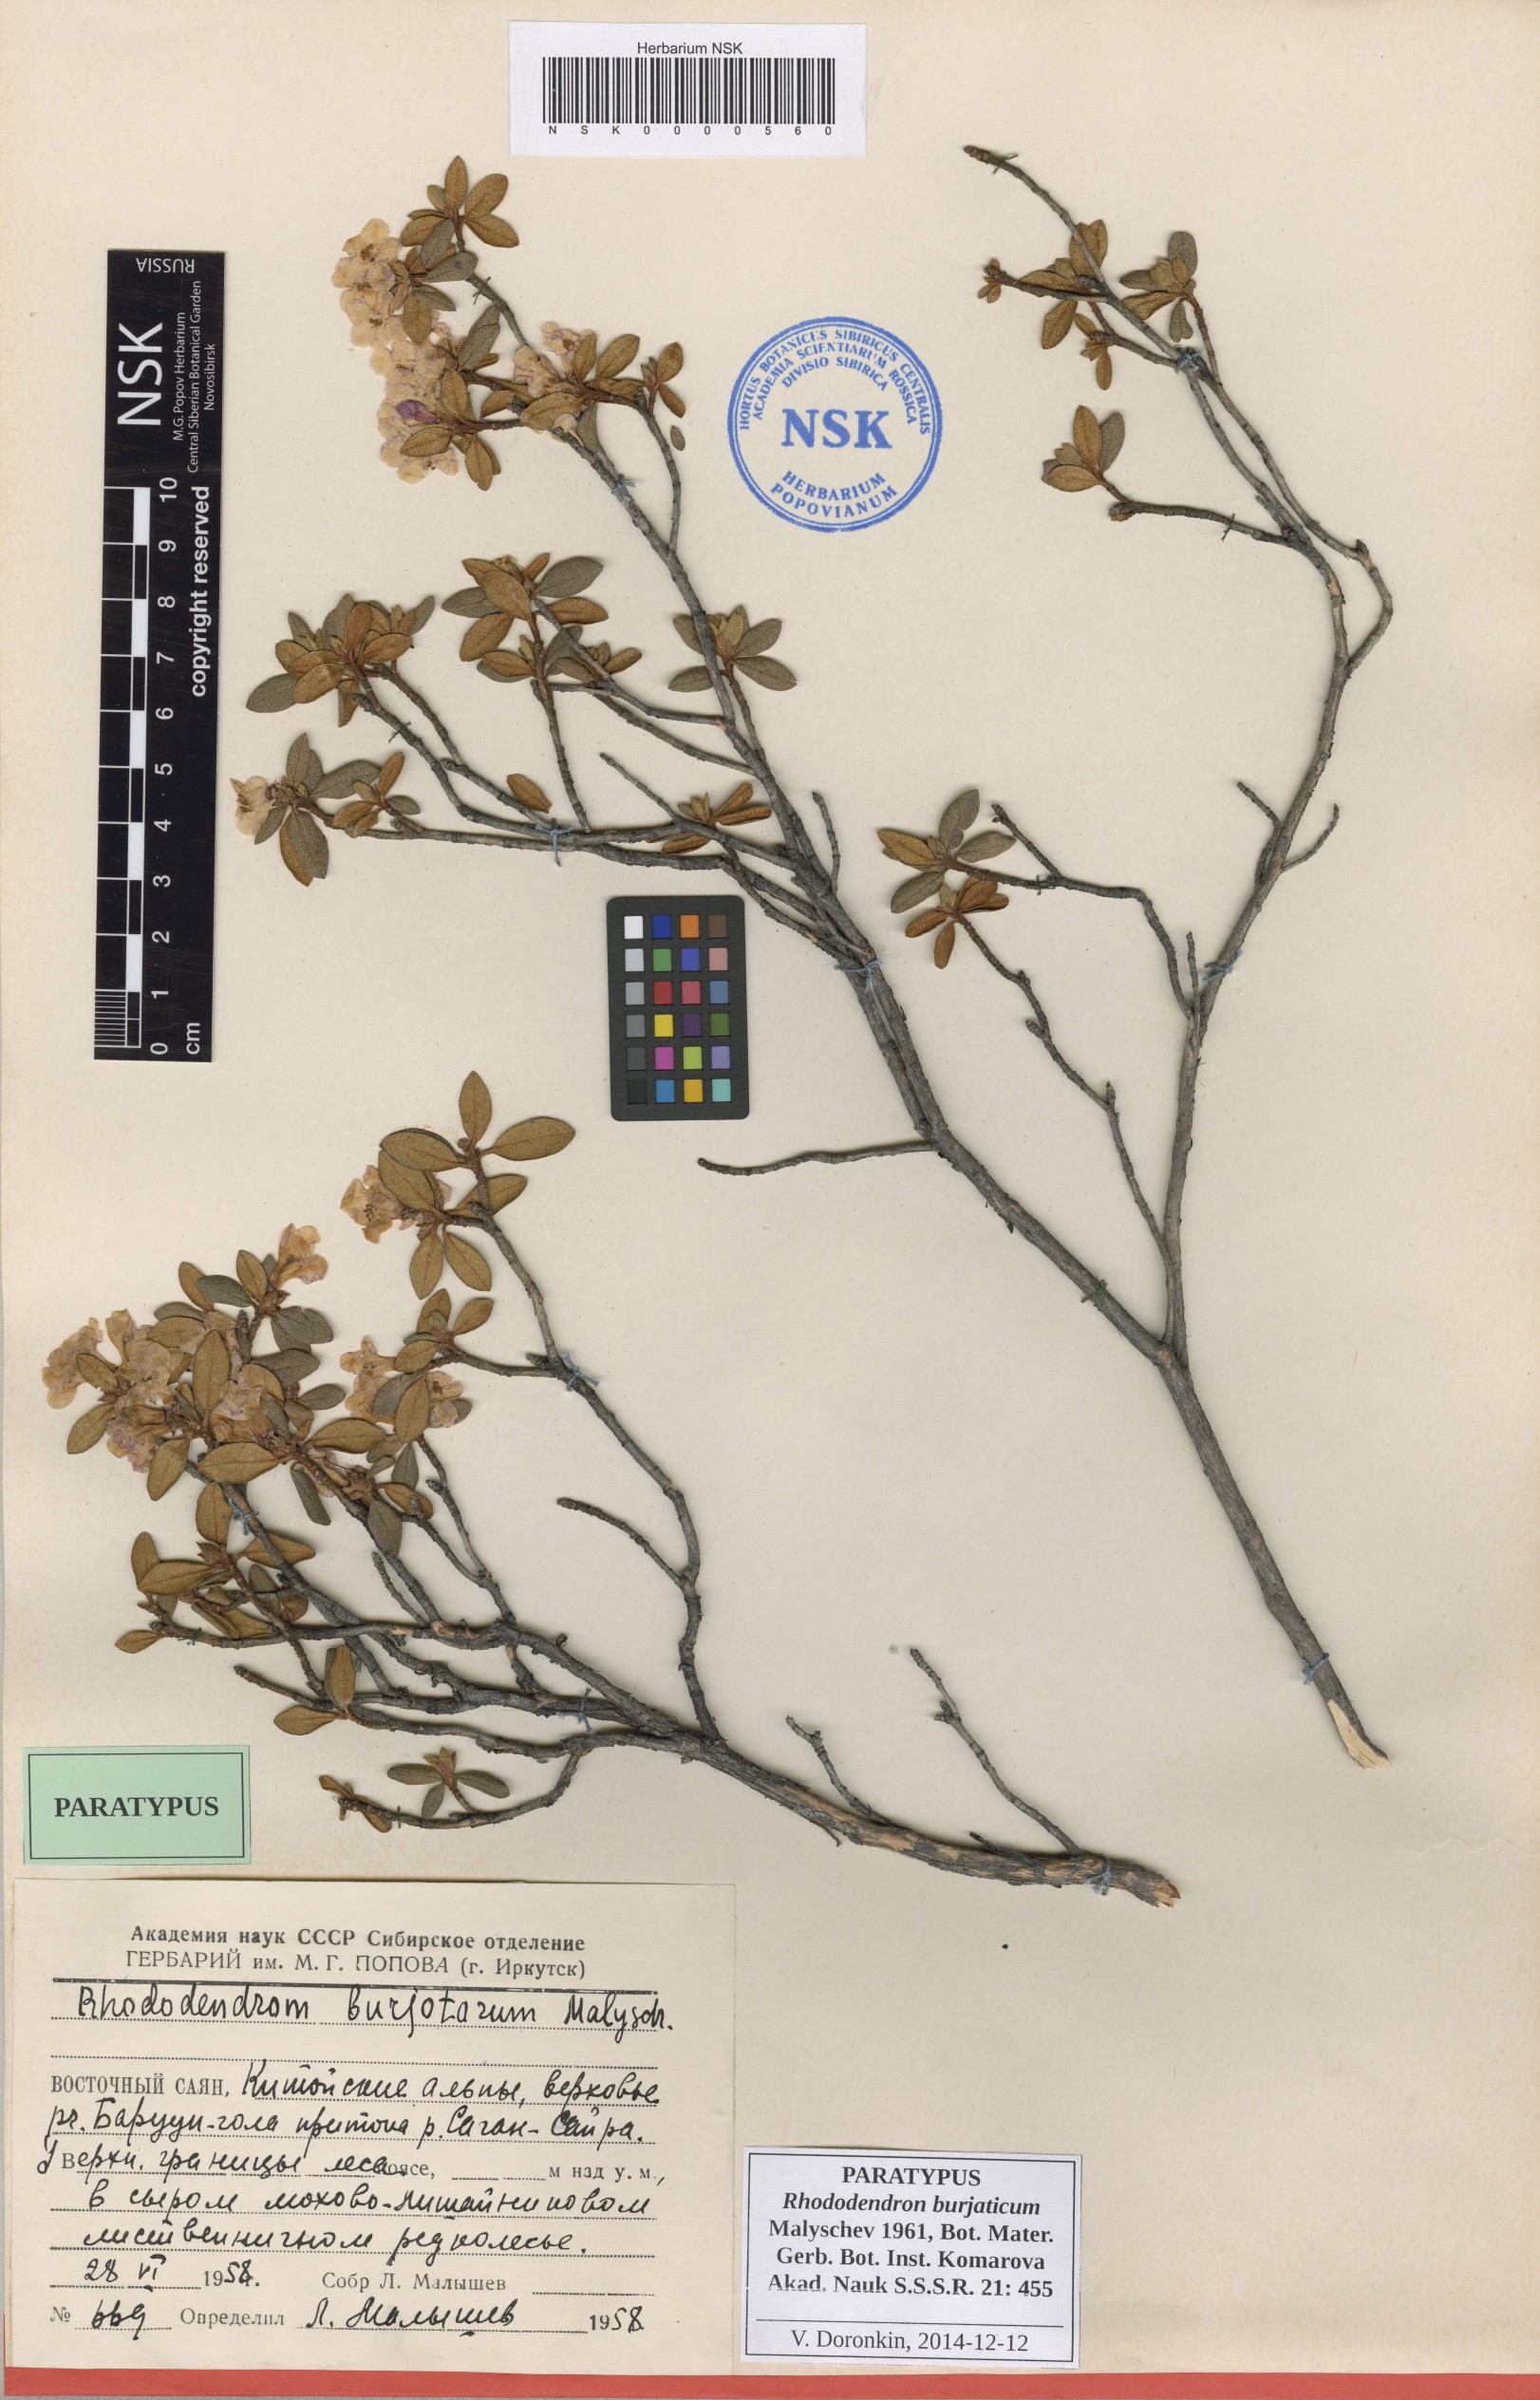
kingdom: Plantae
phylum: Tracheophyta
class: Magnoliopsida
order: Ericales
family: Ericaceae
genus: Rhododendron
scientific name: Rhododendron burjaticum
